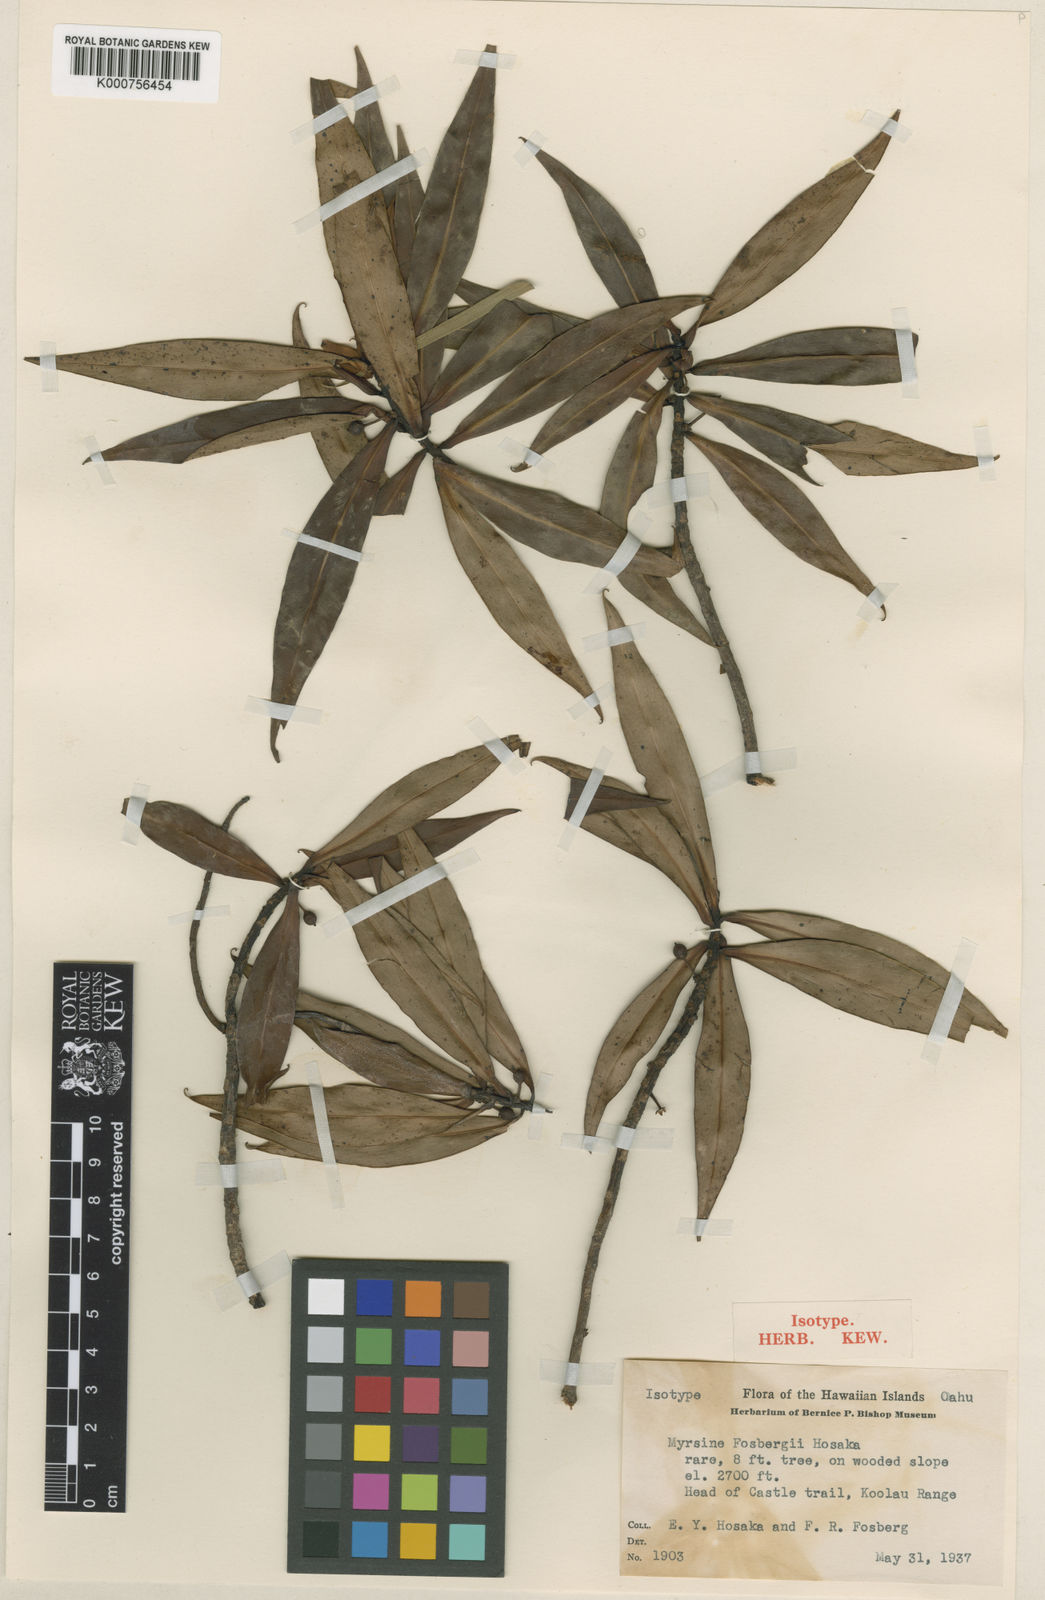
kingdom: Plantae
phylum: Tracheophyta
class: Magnoliopsida
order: Ericales
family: Primulaceae
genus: Myrsine
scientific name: Myrsine fosbergii
